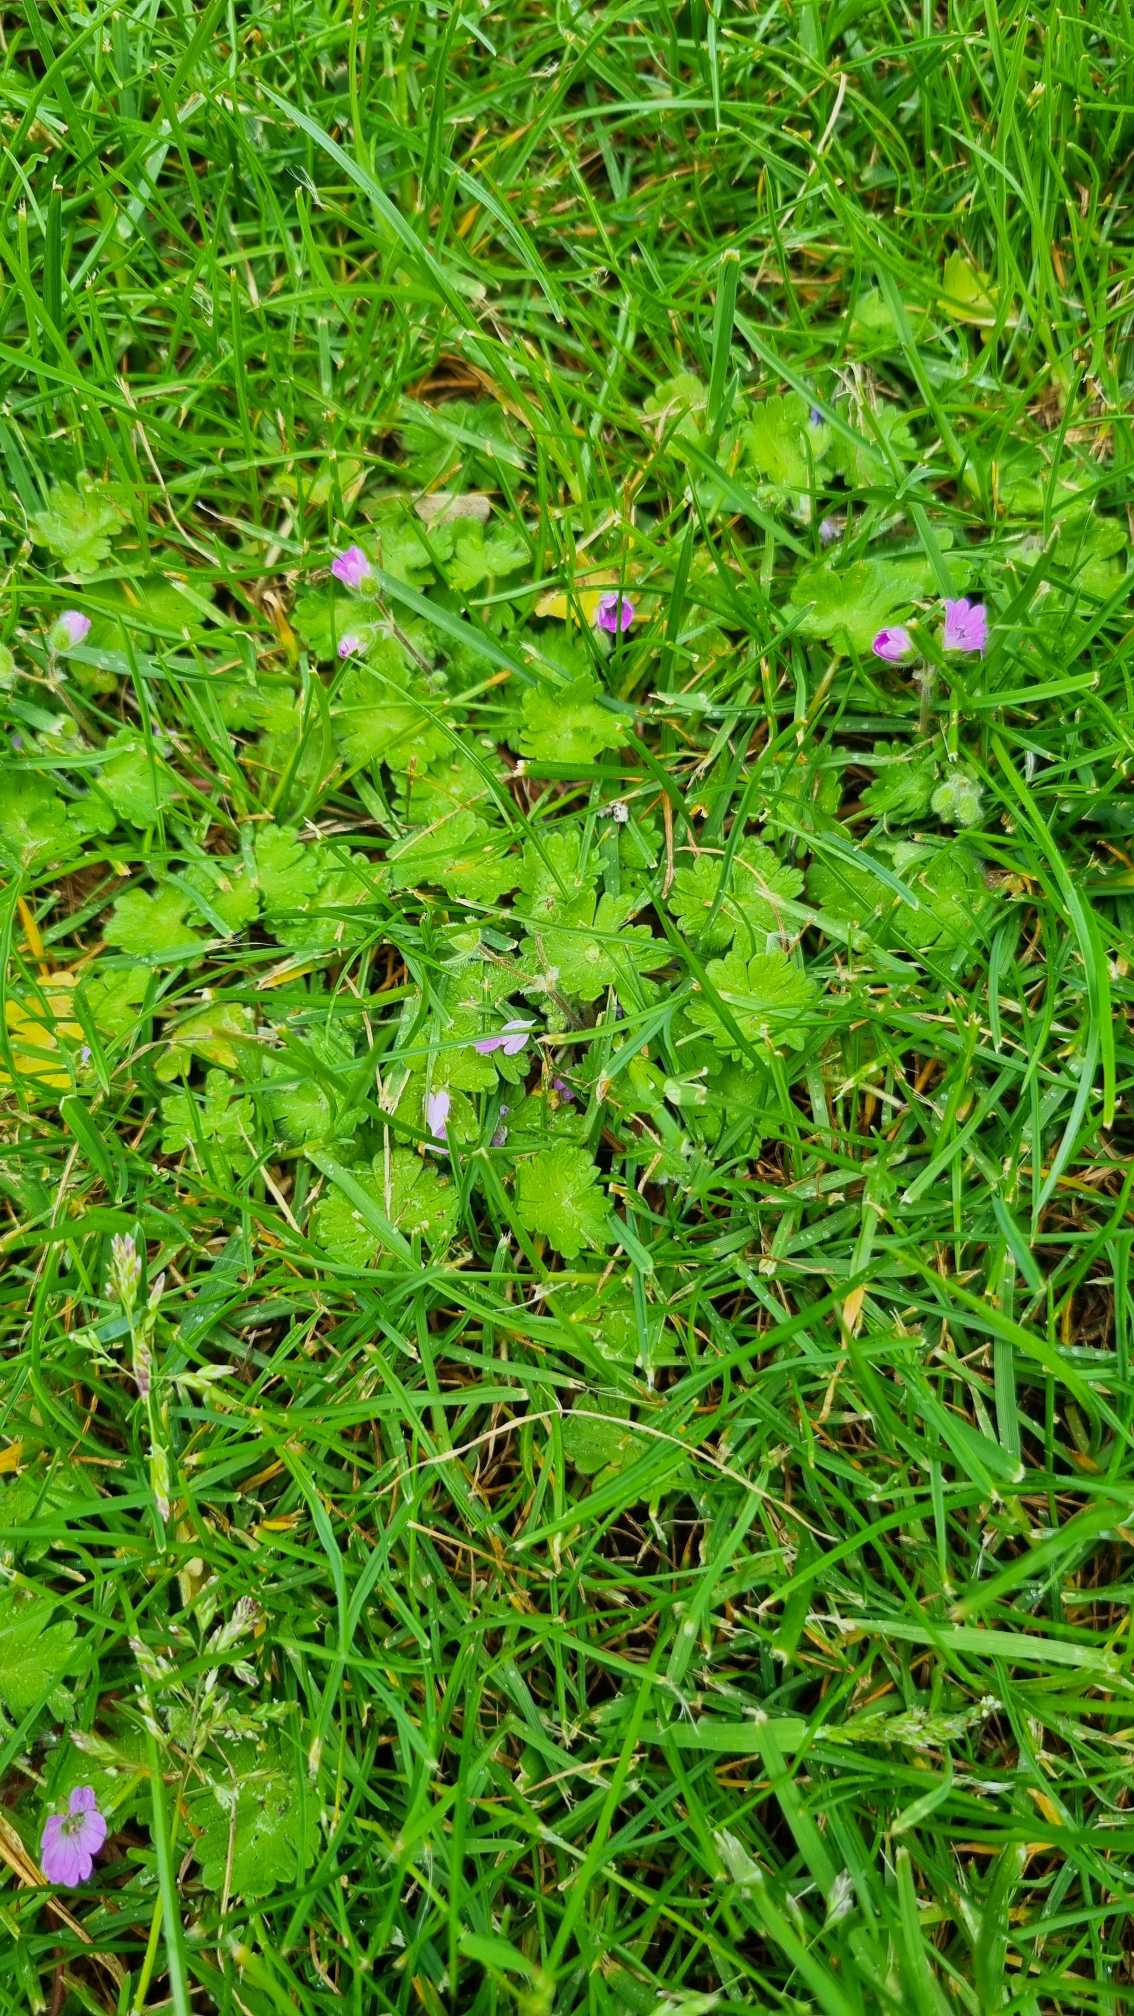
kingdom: Plantae
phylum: Tracheophyta
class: Magnoliopsida
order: Geraniales
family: Geraniaceae
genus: Geranium
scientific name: Geranium molle
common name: Blød storkenæb
